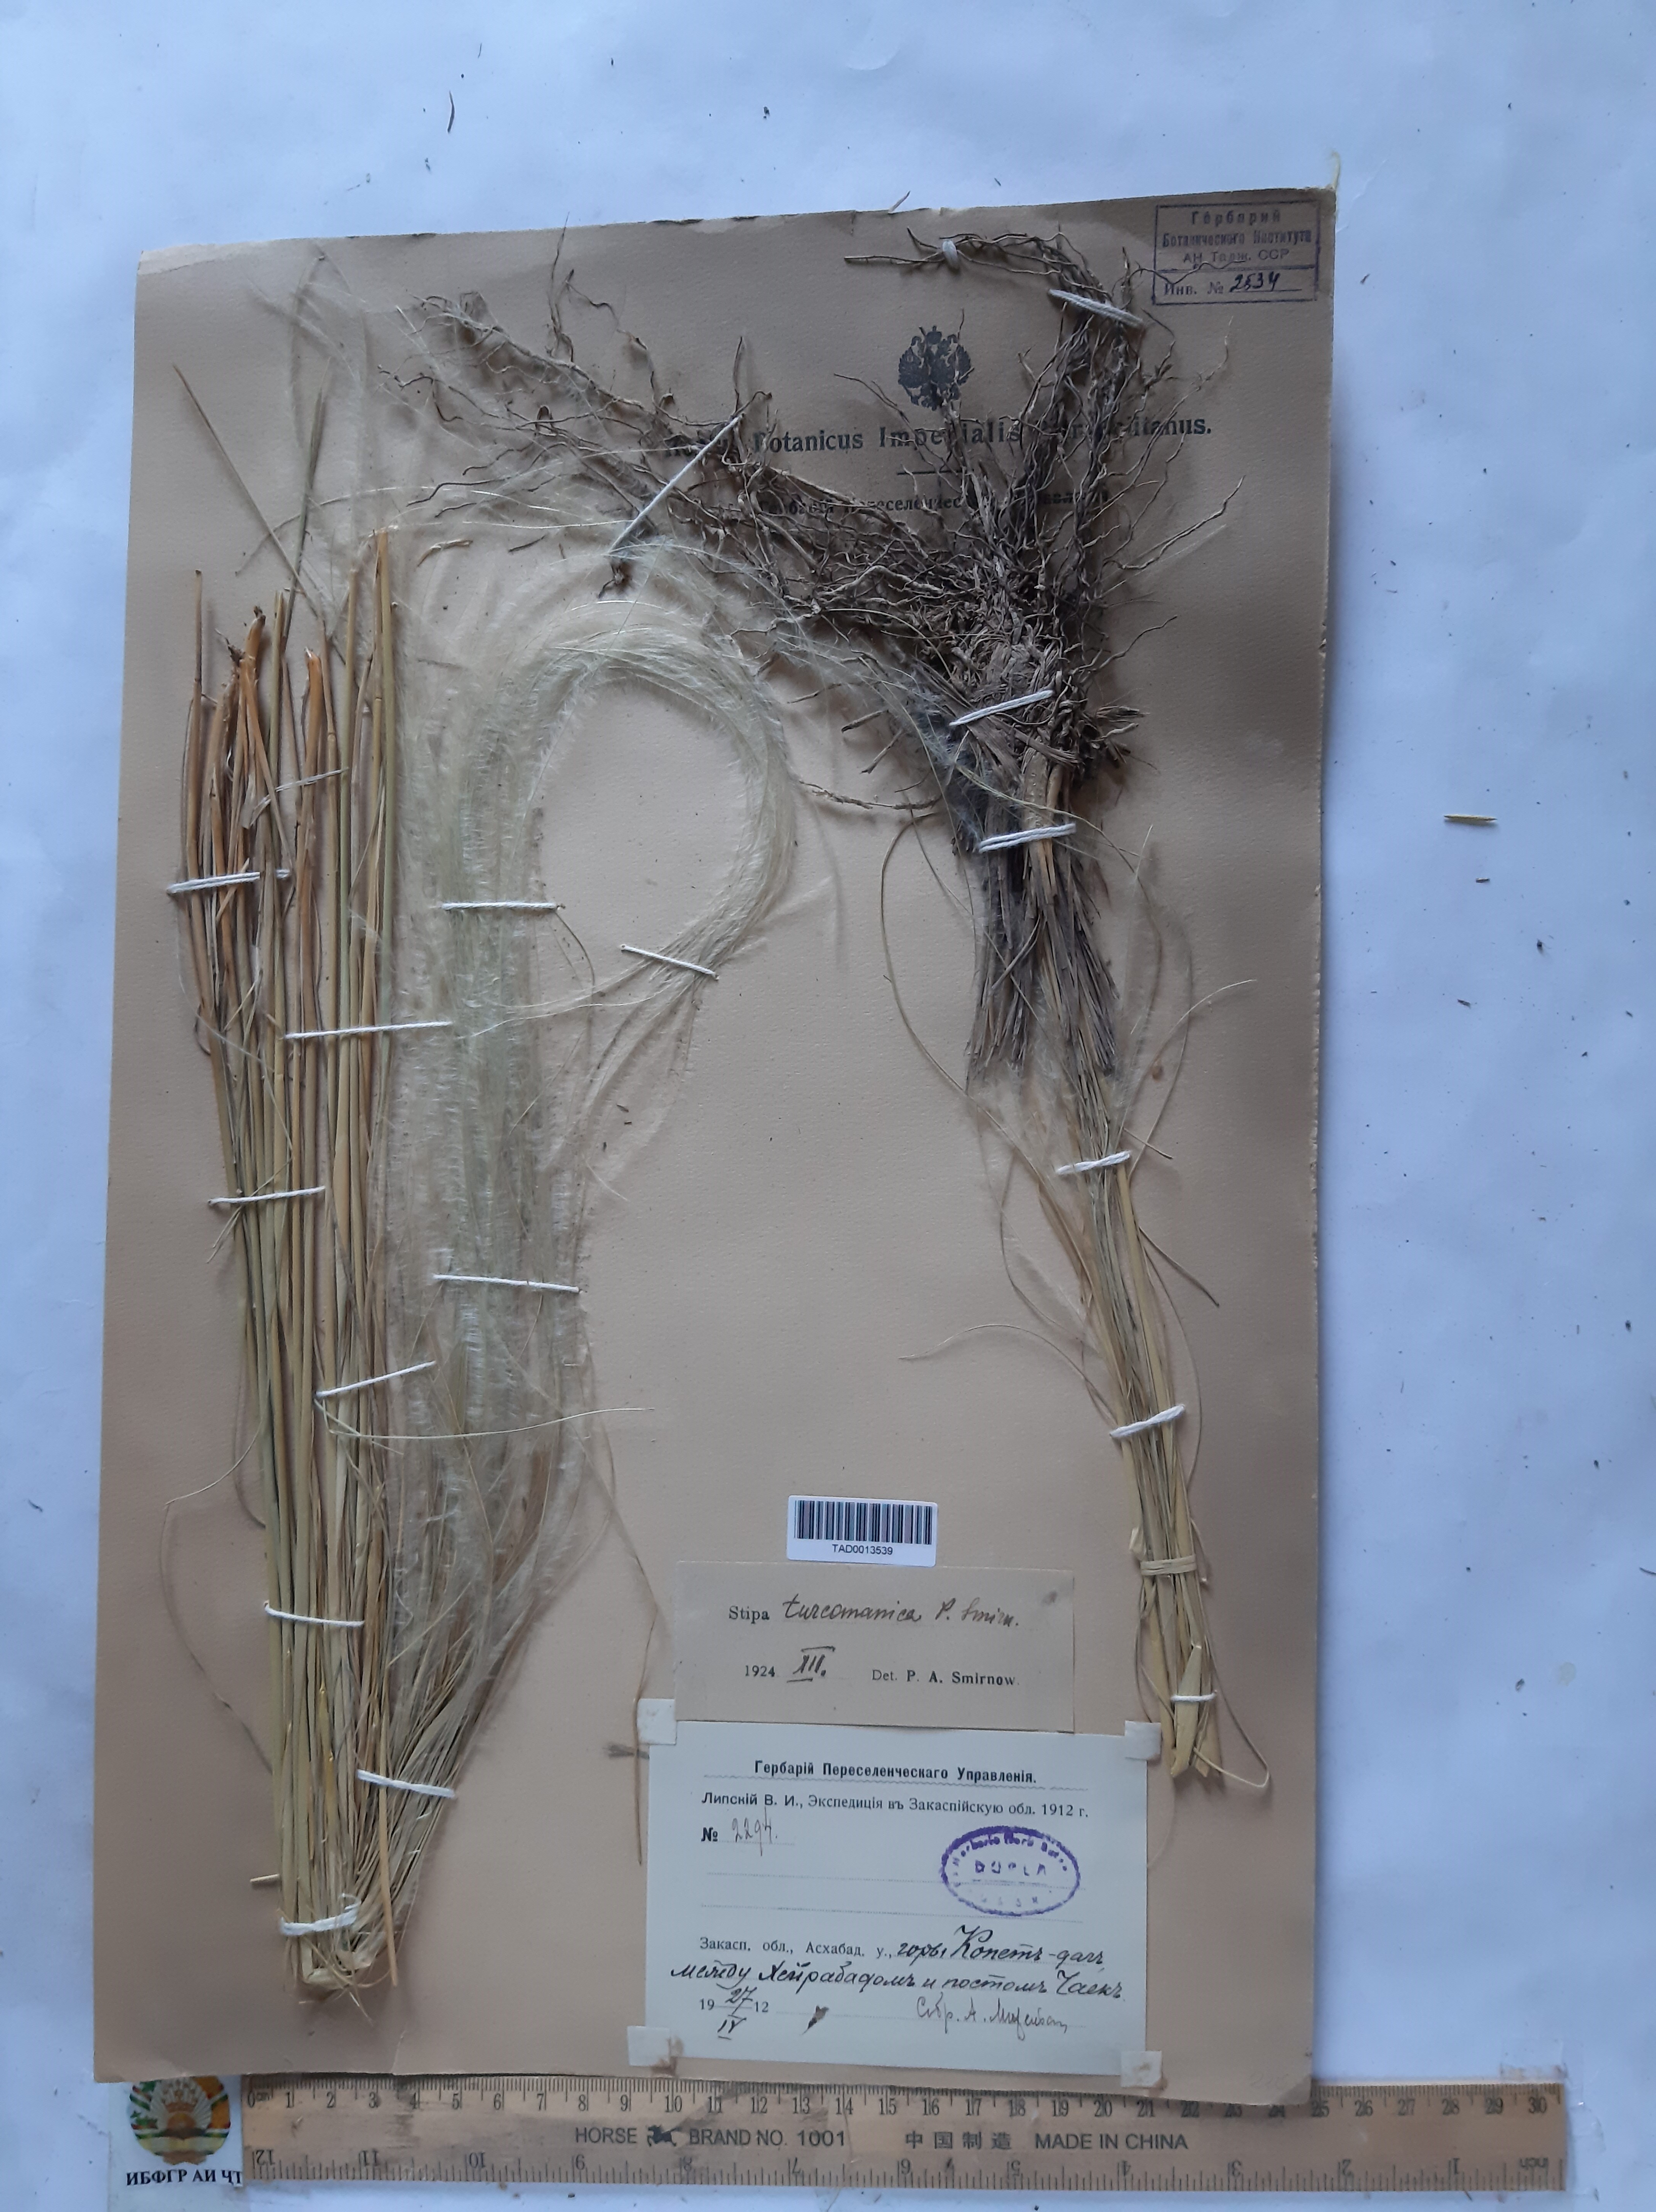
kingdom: Plantae
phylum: Tracheophyta
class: Liliopsida
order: Poales
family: Poaceae
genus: Stipa
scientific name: Stipa zalesskyi
